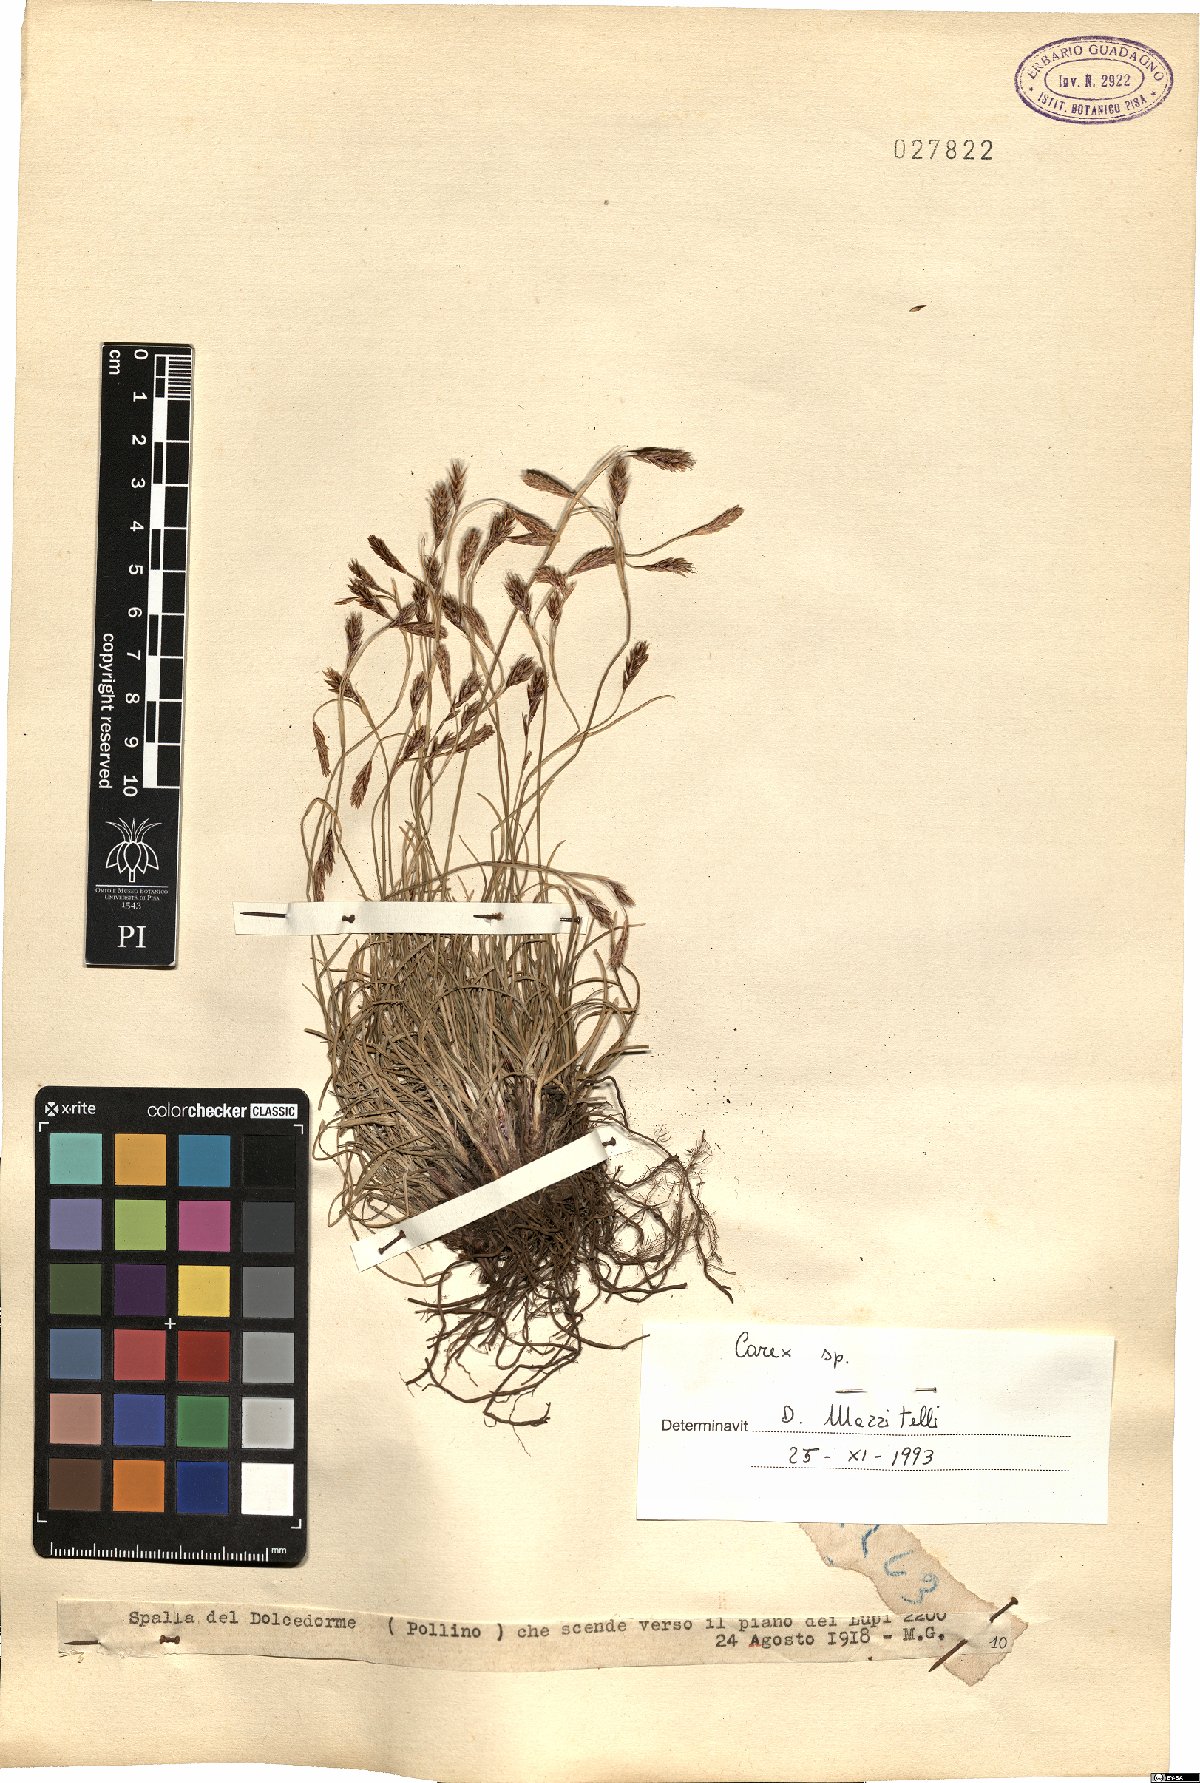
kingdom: Plantae
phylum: Tracheophyta
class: Liliopsida
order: Poales
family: Cyperaceae
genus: Carex
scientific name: Carex
